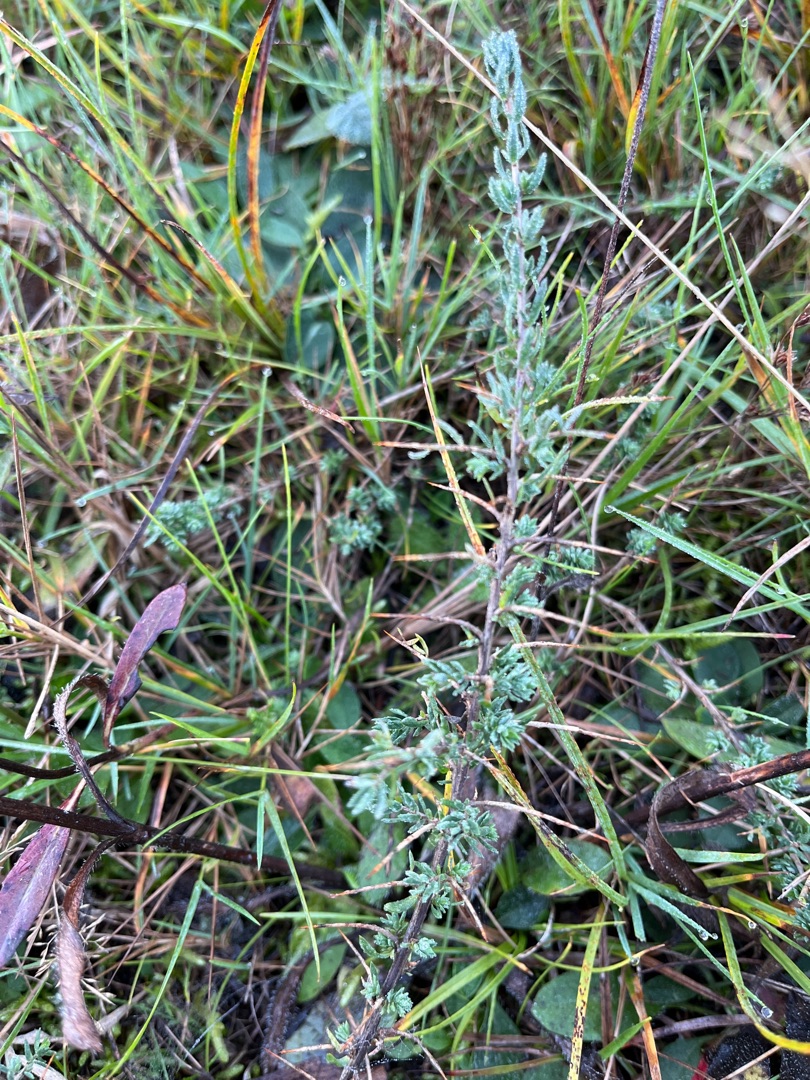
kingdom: Plantae
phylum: Tracheophyta
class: Magnoliopsida
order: Fabales
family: Fabaceae
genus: Genista
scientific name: Genista anglica
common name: Engelsk visse
